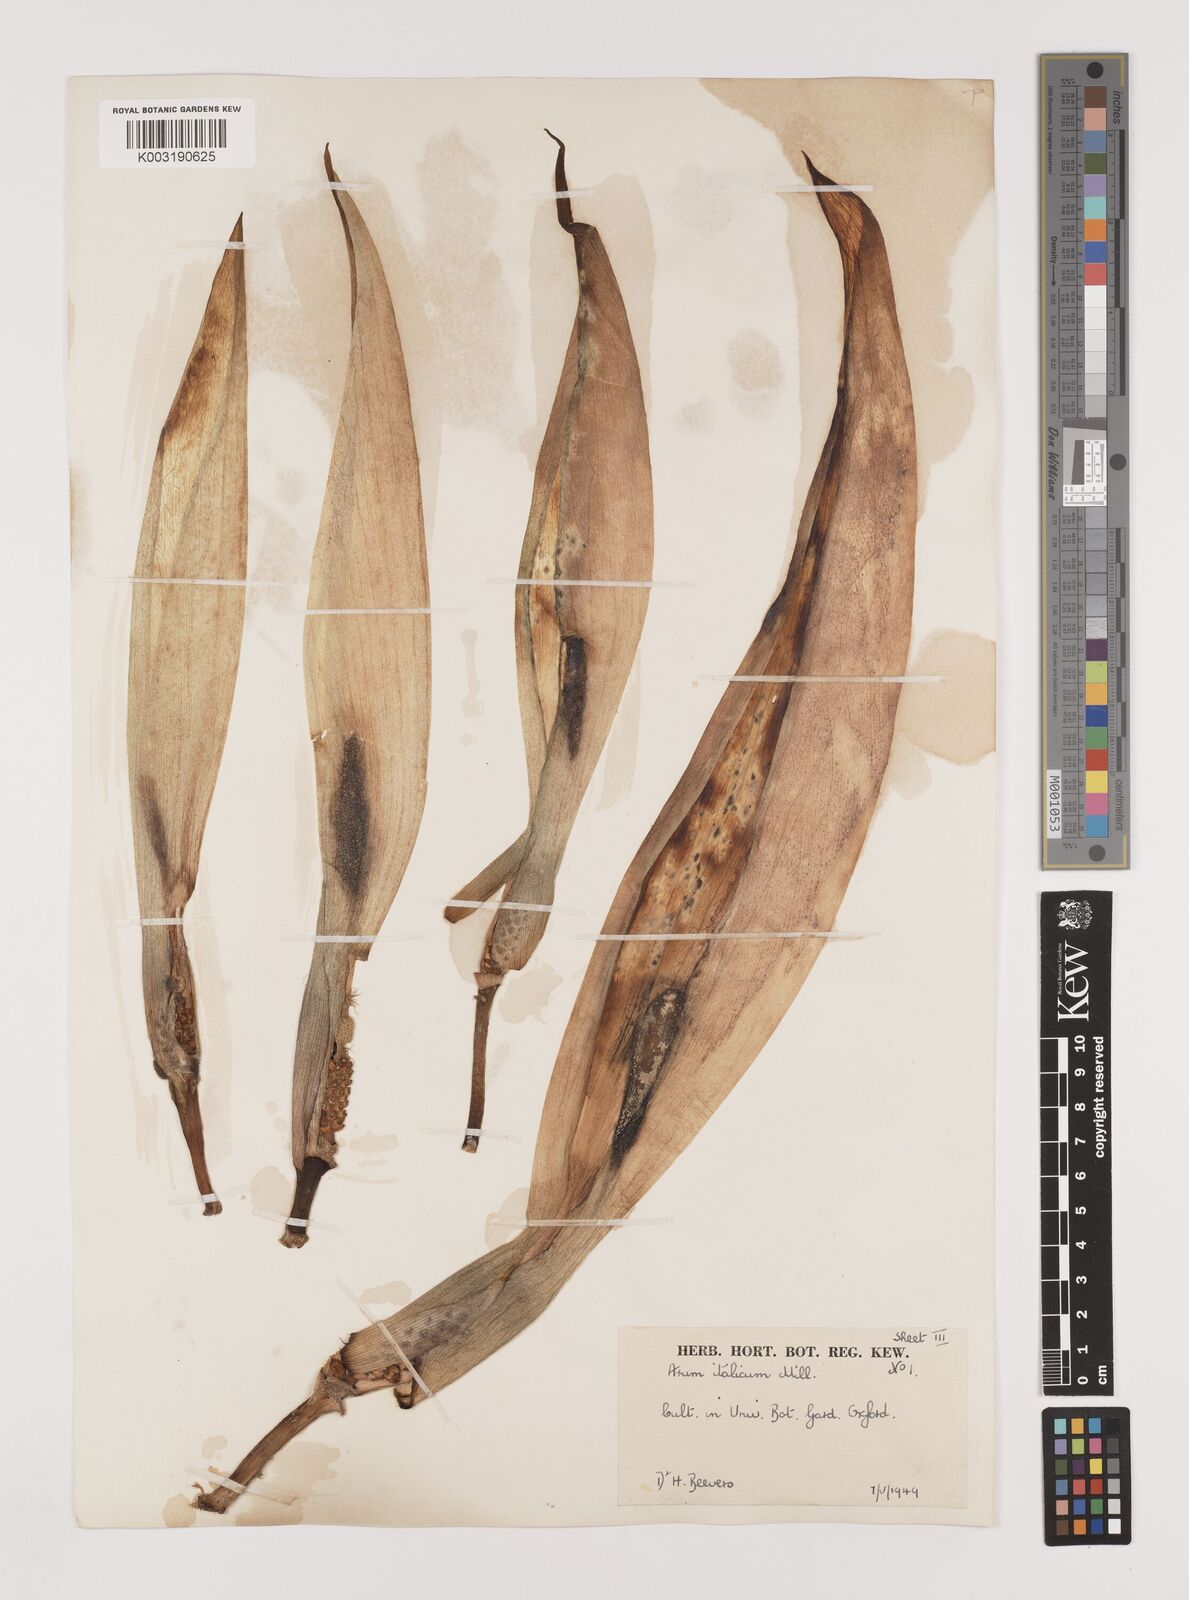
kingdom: Plantae
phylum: Tracheophyta
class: Liliopsida
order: Alismatales
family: Araceae
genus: Arum
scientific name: Arum italicum
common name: Italian lords-and-ladies
